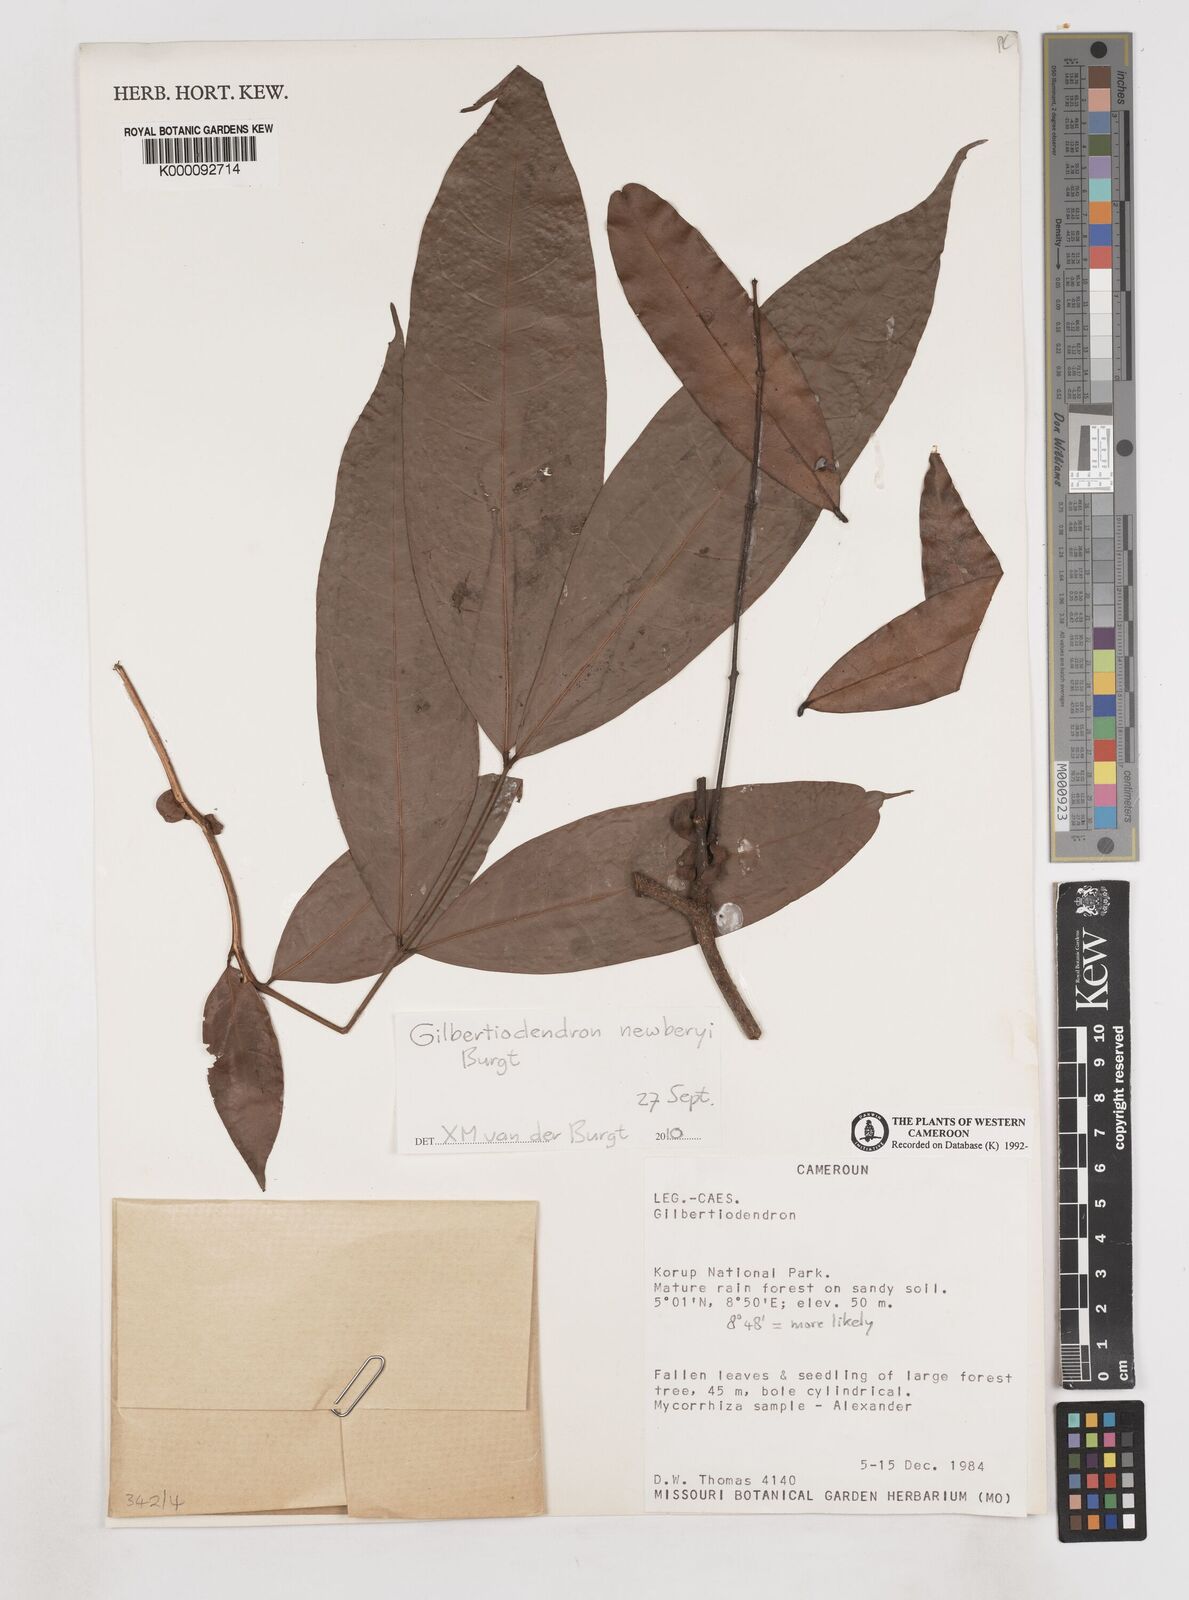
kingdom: Plantae
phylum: Tracheophyta
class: Magnoliopsida
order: Fabales
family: Fabaceae
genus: Gilbertiodendron
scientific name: Gilbertiodendron newberyi
